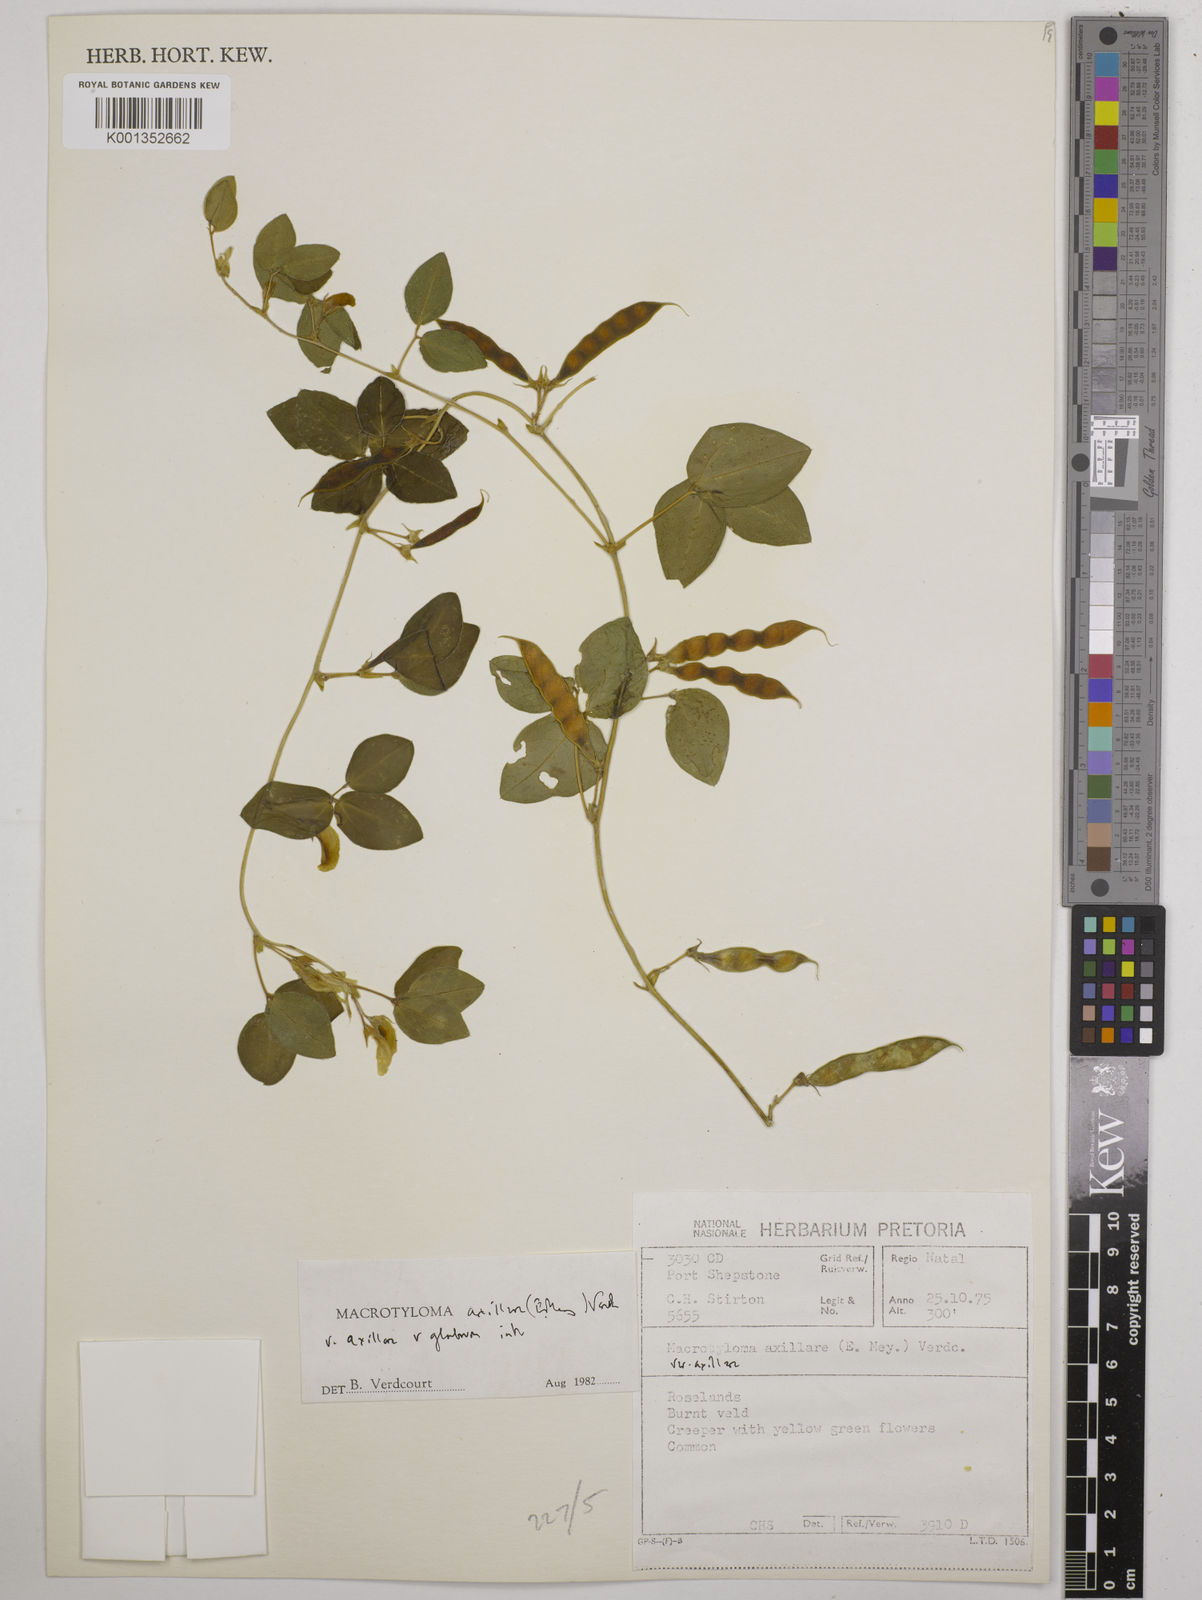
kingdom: Plantae
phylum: Tracheophyta
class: Magnoliopsida
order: Fabales
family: Fabaceae
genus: Macrotyloma
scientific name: Macrotyloma axillare
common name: Perennial horsegram
